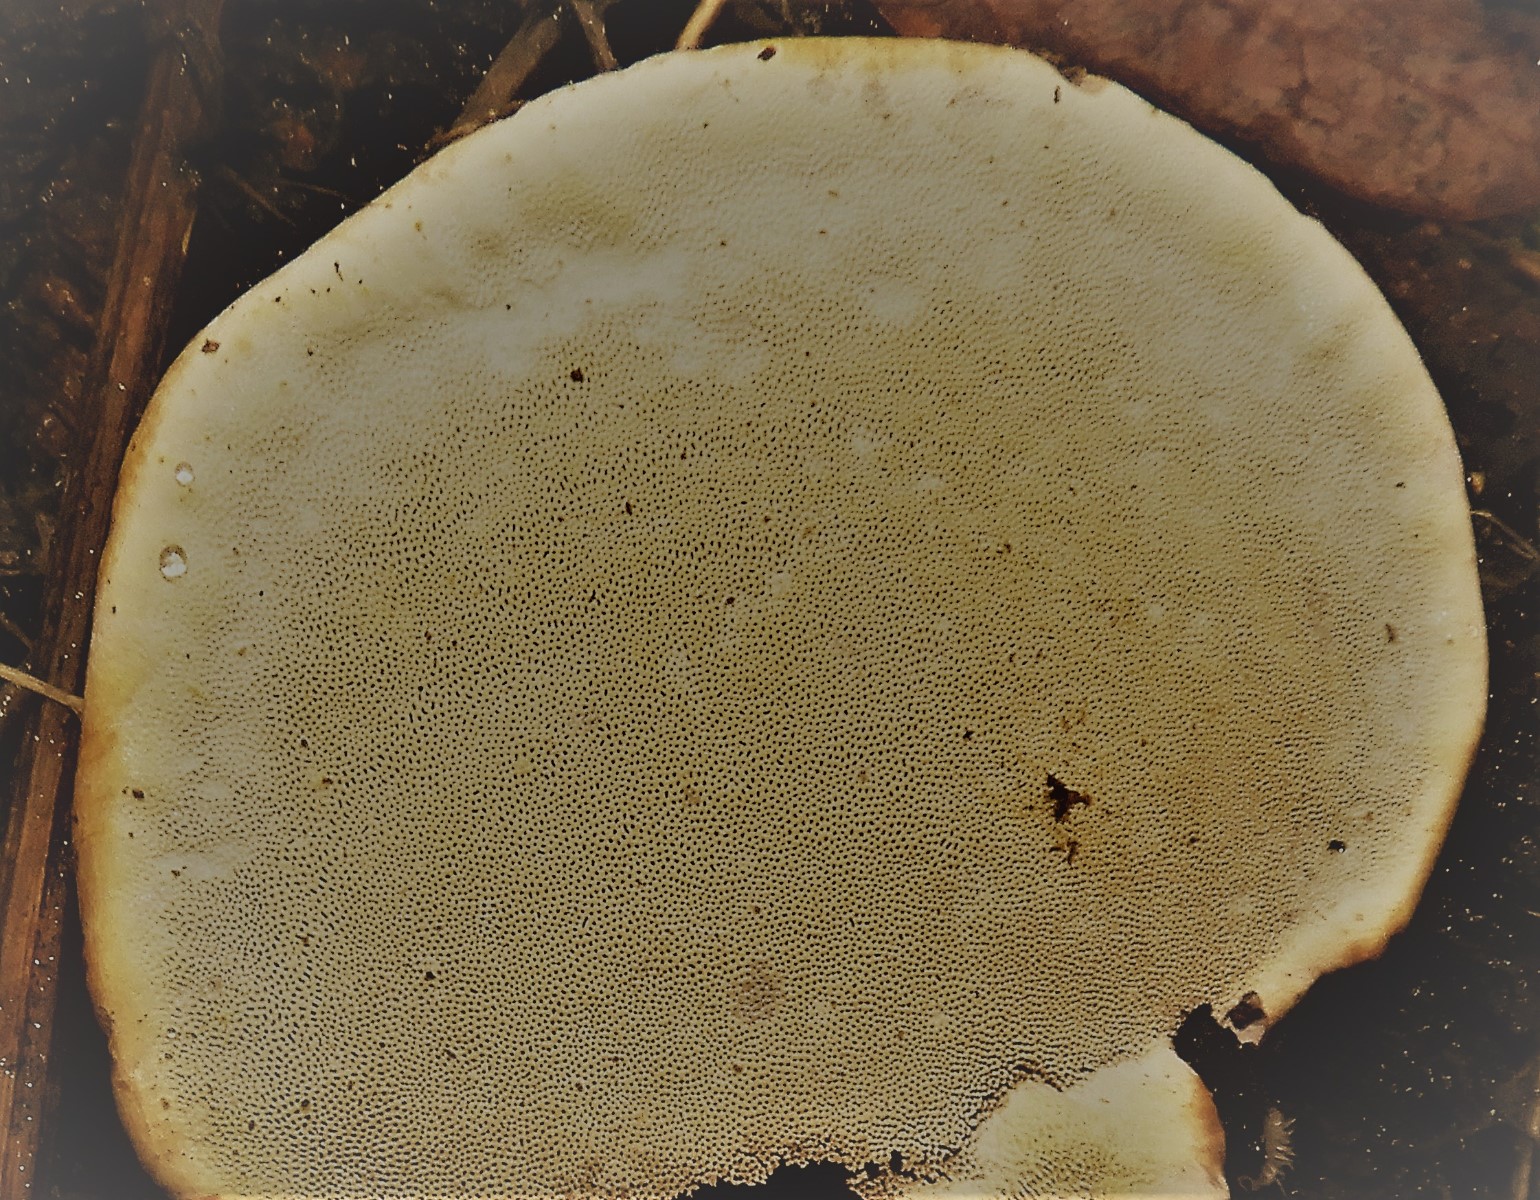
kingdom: Fungi
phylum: Basidiomycota
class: Agaricomycetes
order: Polyporales
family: Fomitopsidaceae
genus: Fomitopsis
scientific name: Fomitopsis pinicola
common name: randbæltet hovporesvamp
